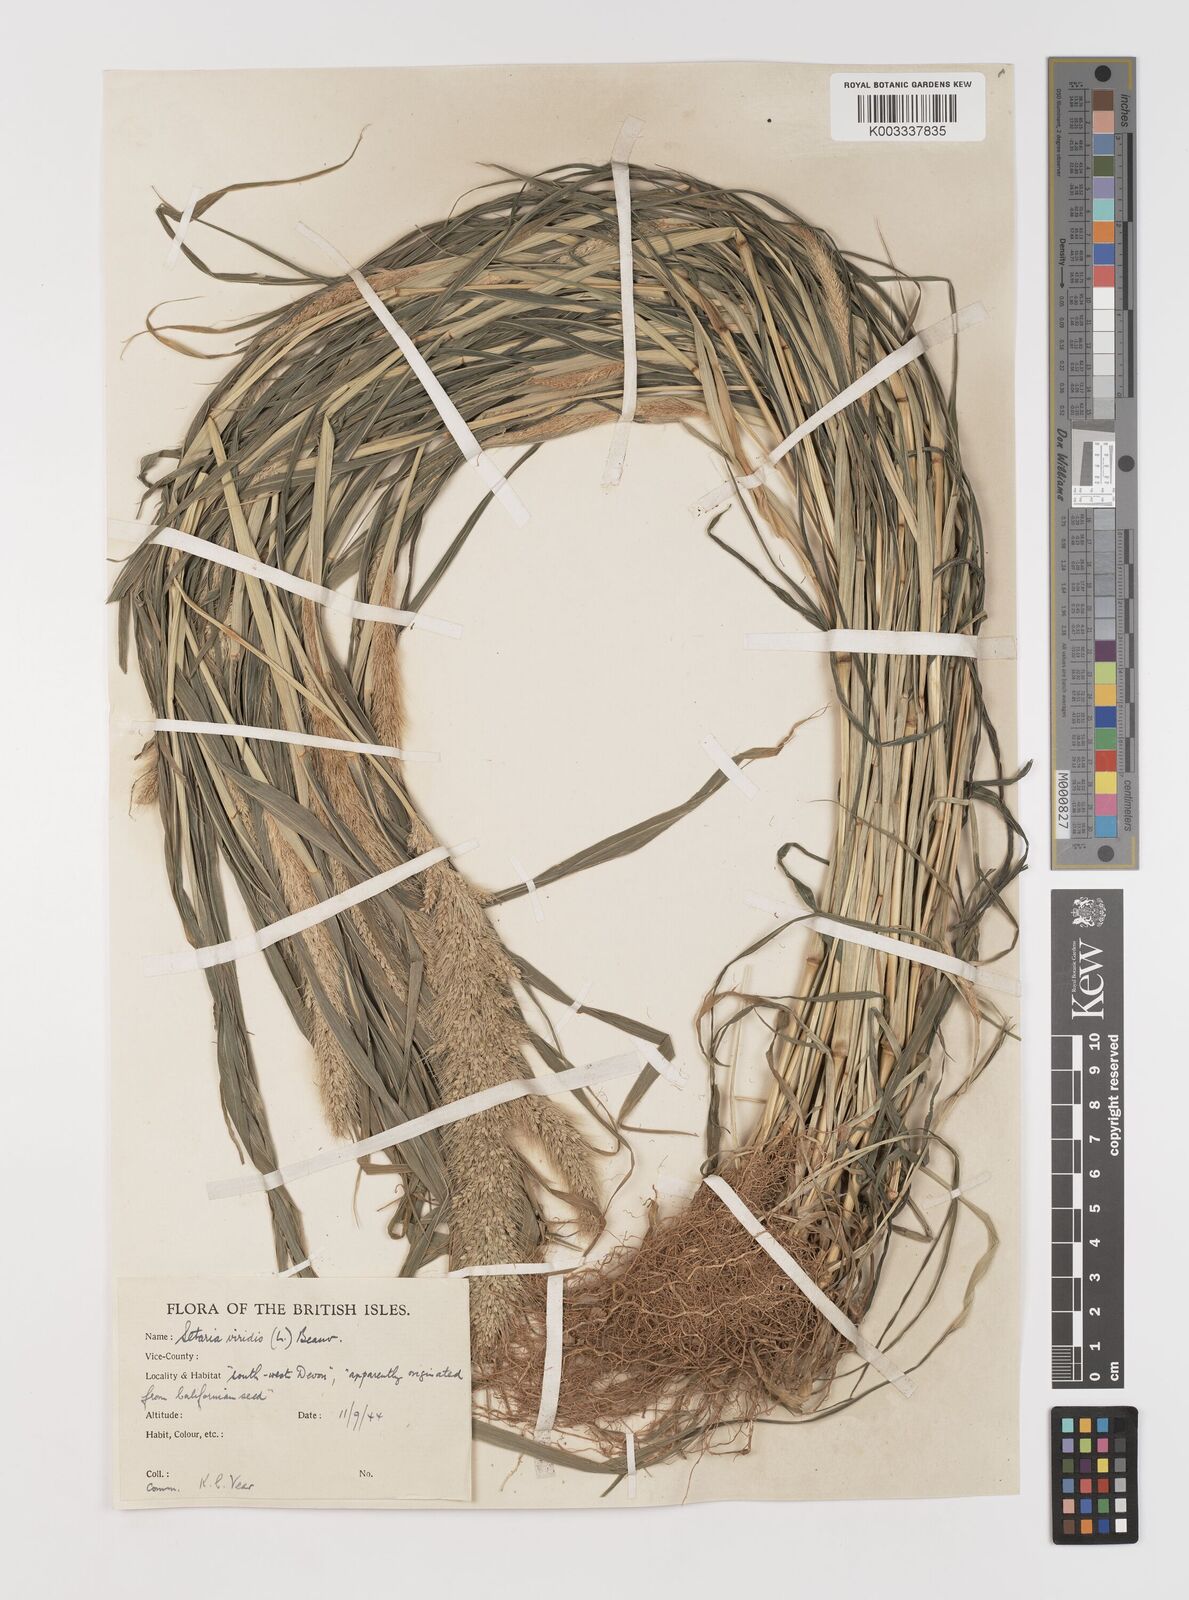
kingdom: Plantae
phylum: Tracheophyta
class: Liliopsida
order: Poales
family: Poaceae
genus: Setaria
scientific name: Setaria viridis
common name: Green bristlegrass
